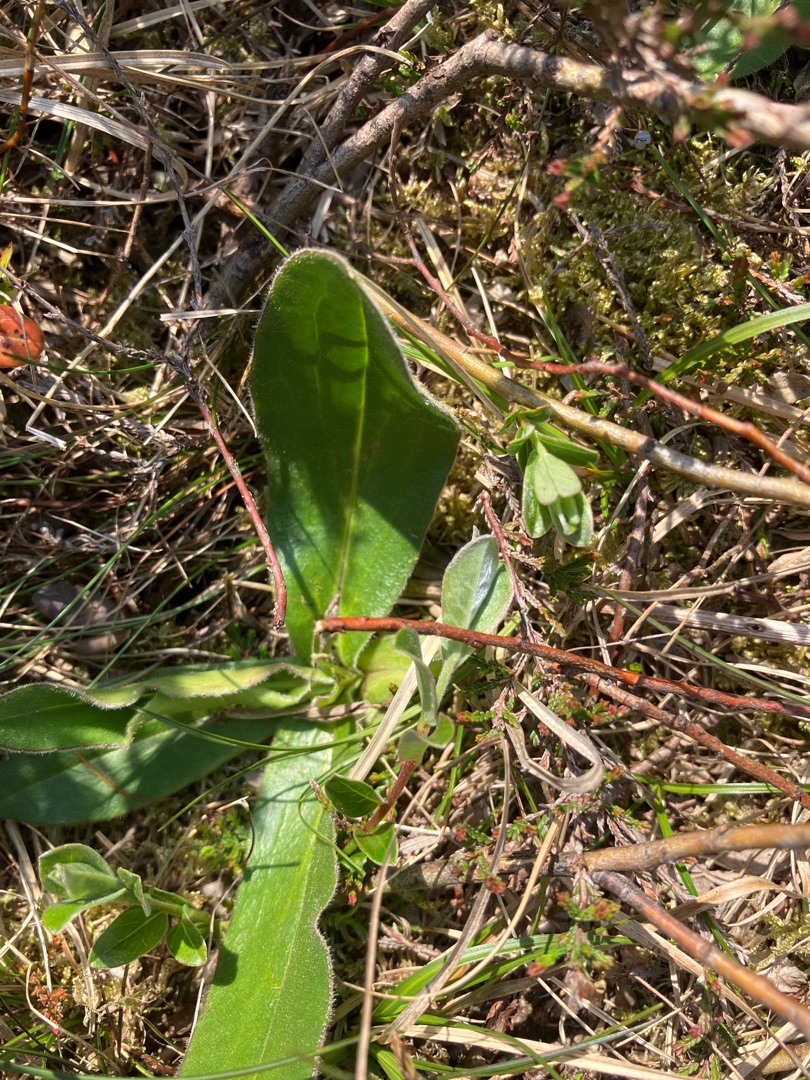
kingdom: Plantae
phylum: Tracheophyta
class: Magnoliopsida
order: Asterales
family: Asteraceae
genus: Arnica
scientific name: Arnica montana
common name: Guldblomme
